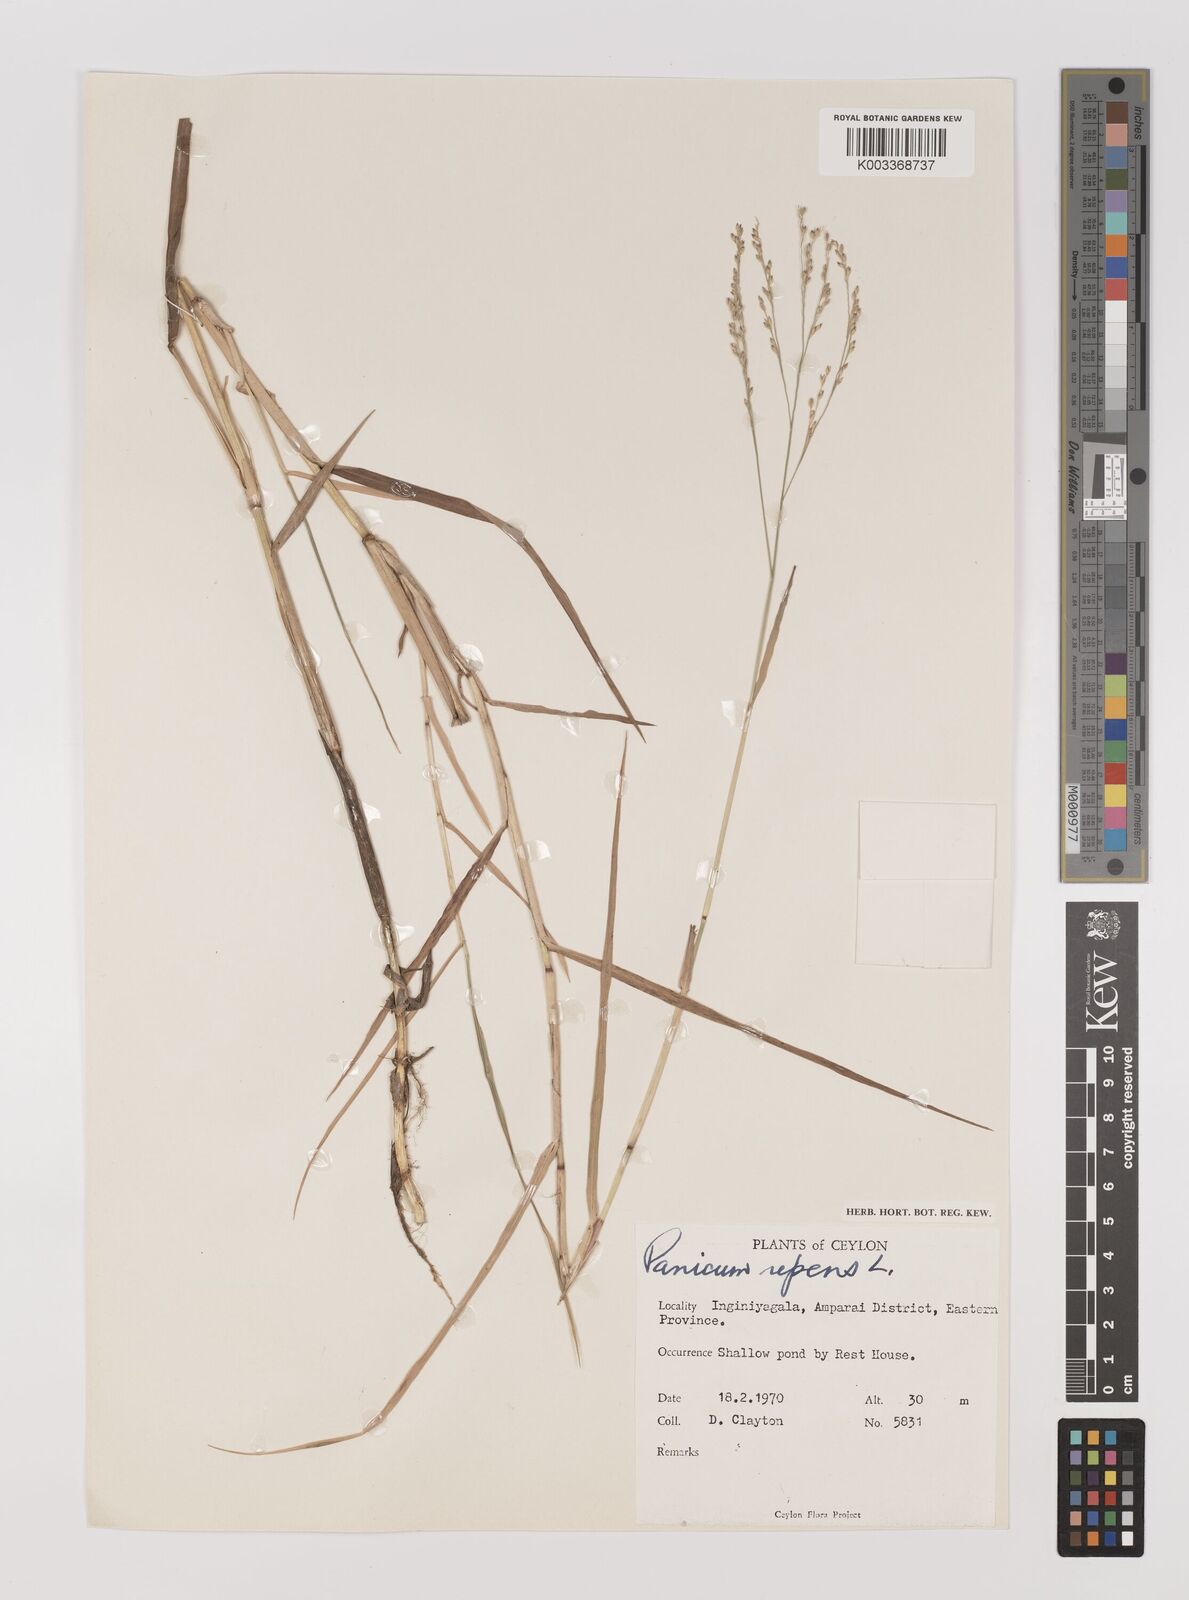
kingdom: Plantae
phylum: Tracheophyta
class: Liliopsida
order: Poales
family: Poaceae
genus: Panicum
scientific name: Panicum repens
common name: Torpedo grass
